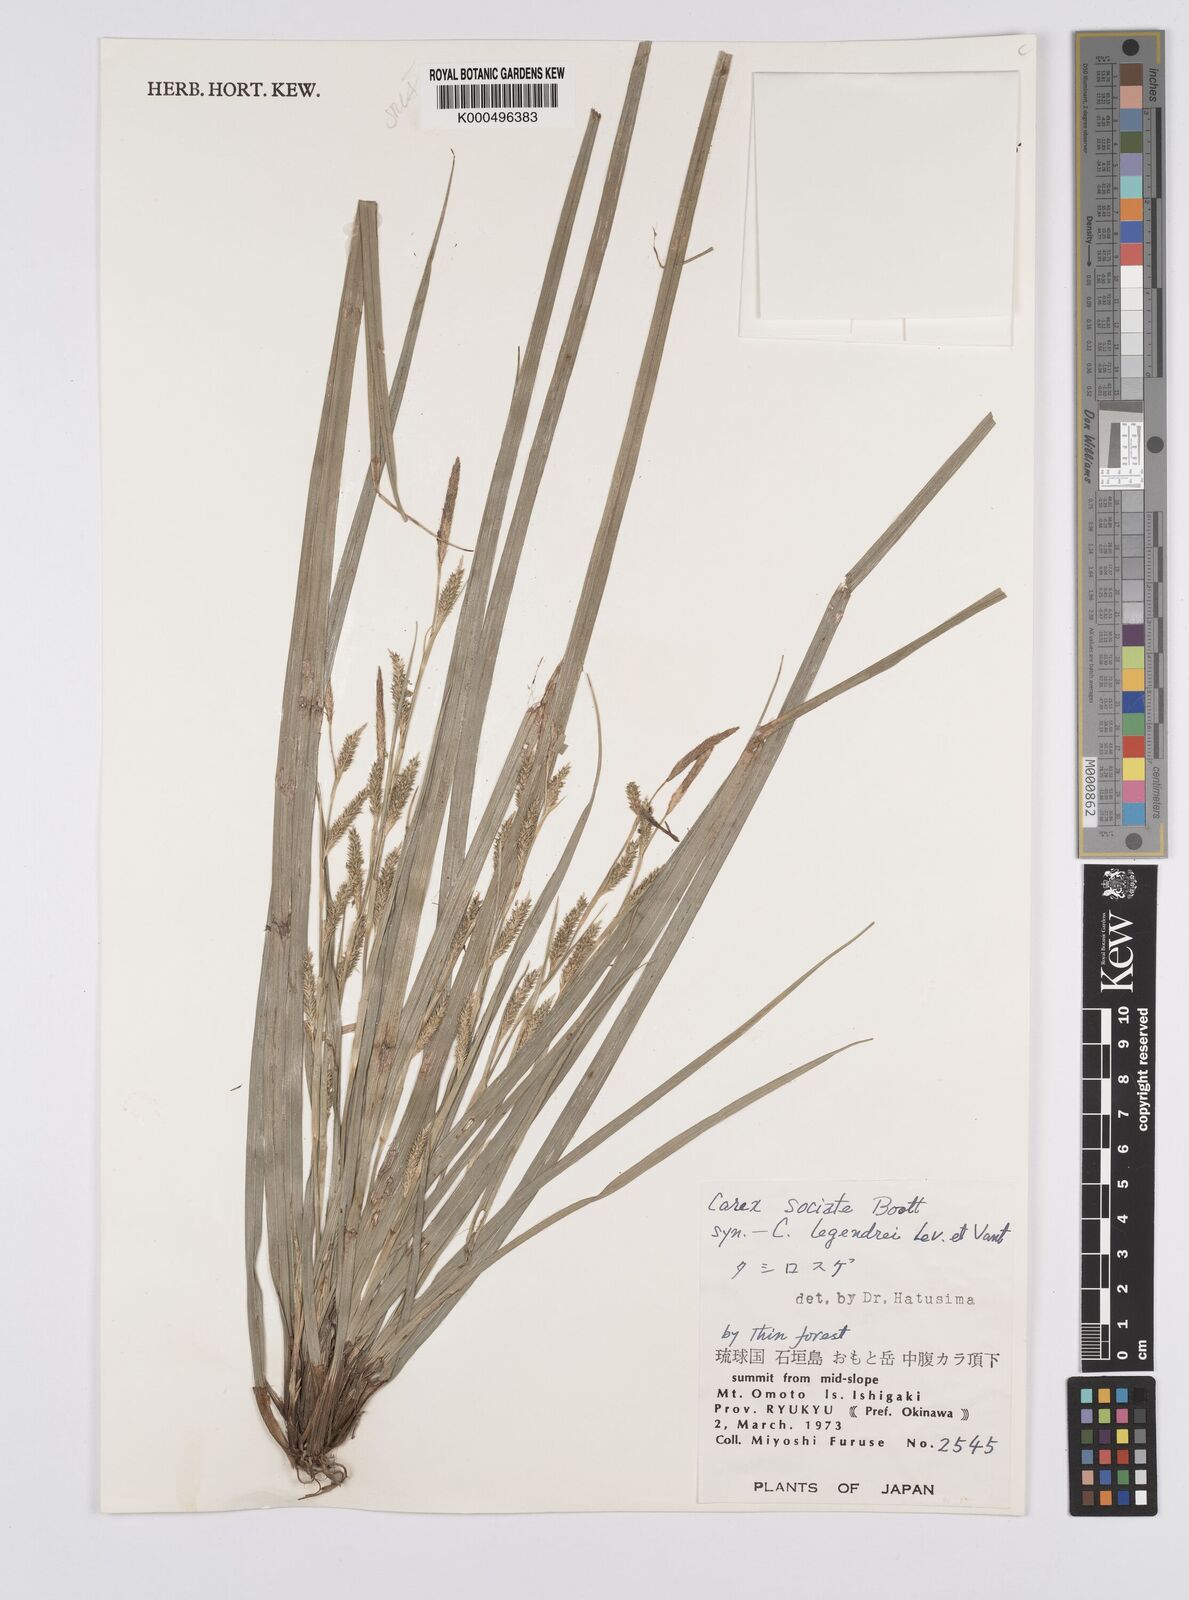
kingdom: Plantae
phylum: Tracheophyta
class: Liliopsida
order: Poales
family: Cyperaceae
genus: Carex
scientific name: Carex chinensis
